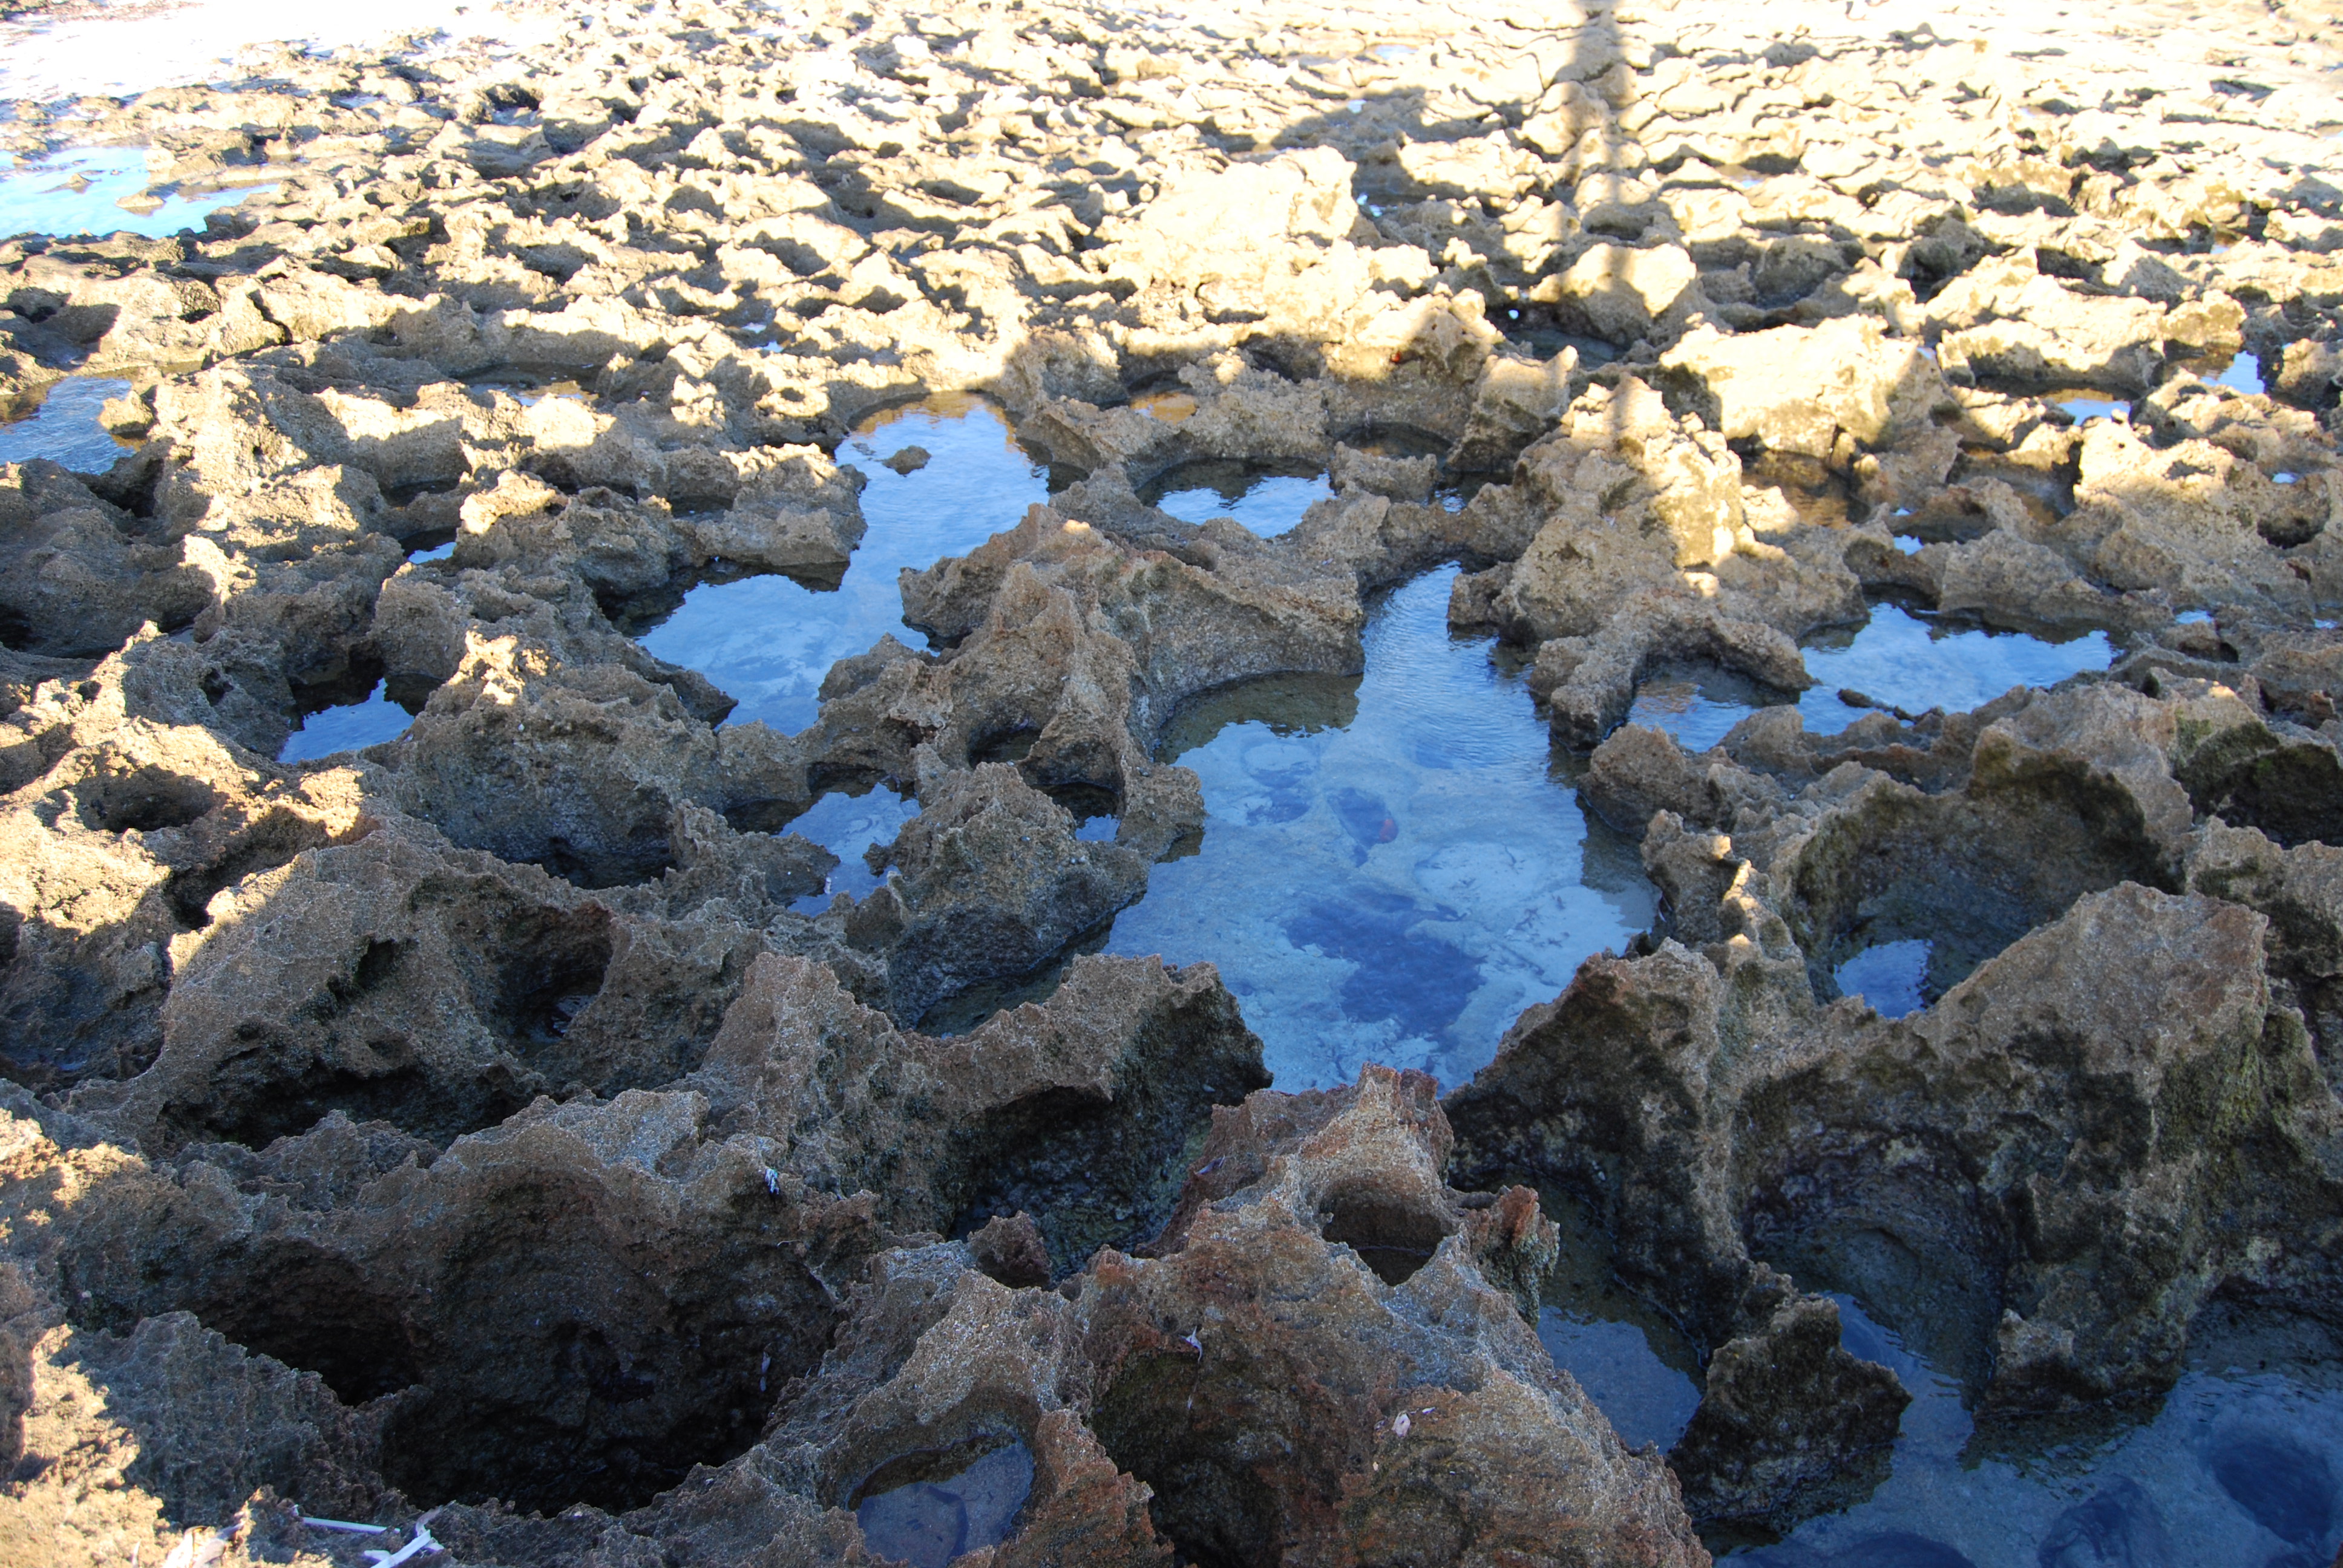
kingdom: Animalia
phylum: Mollusca
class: Cephalopoda
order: Octopoda
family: Octopodidae
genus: Callistoctopus
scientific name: Callistoctopus
